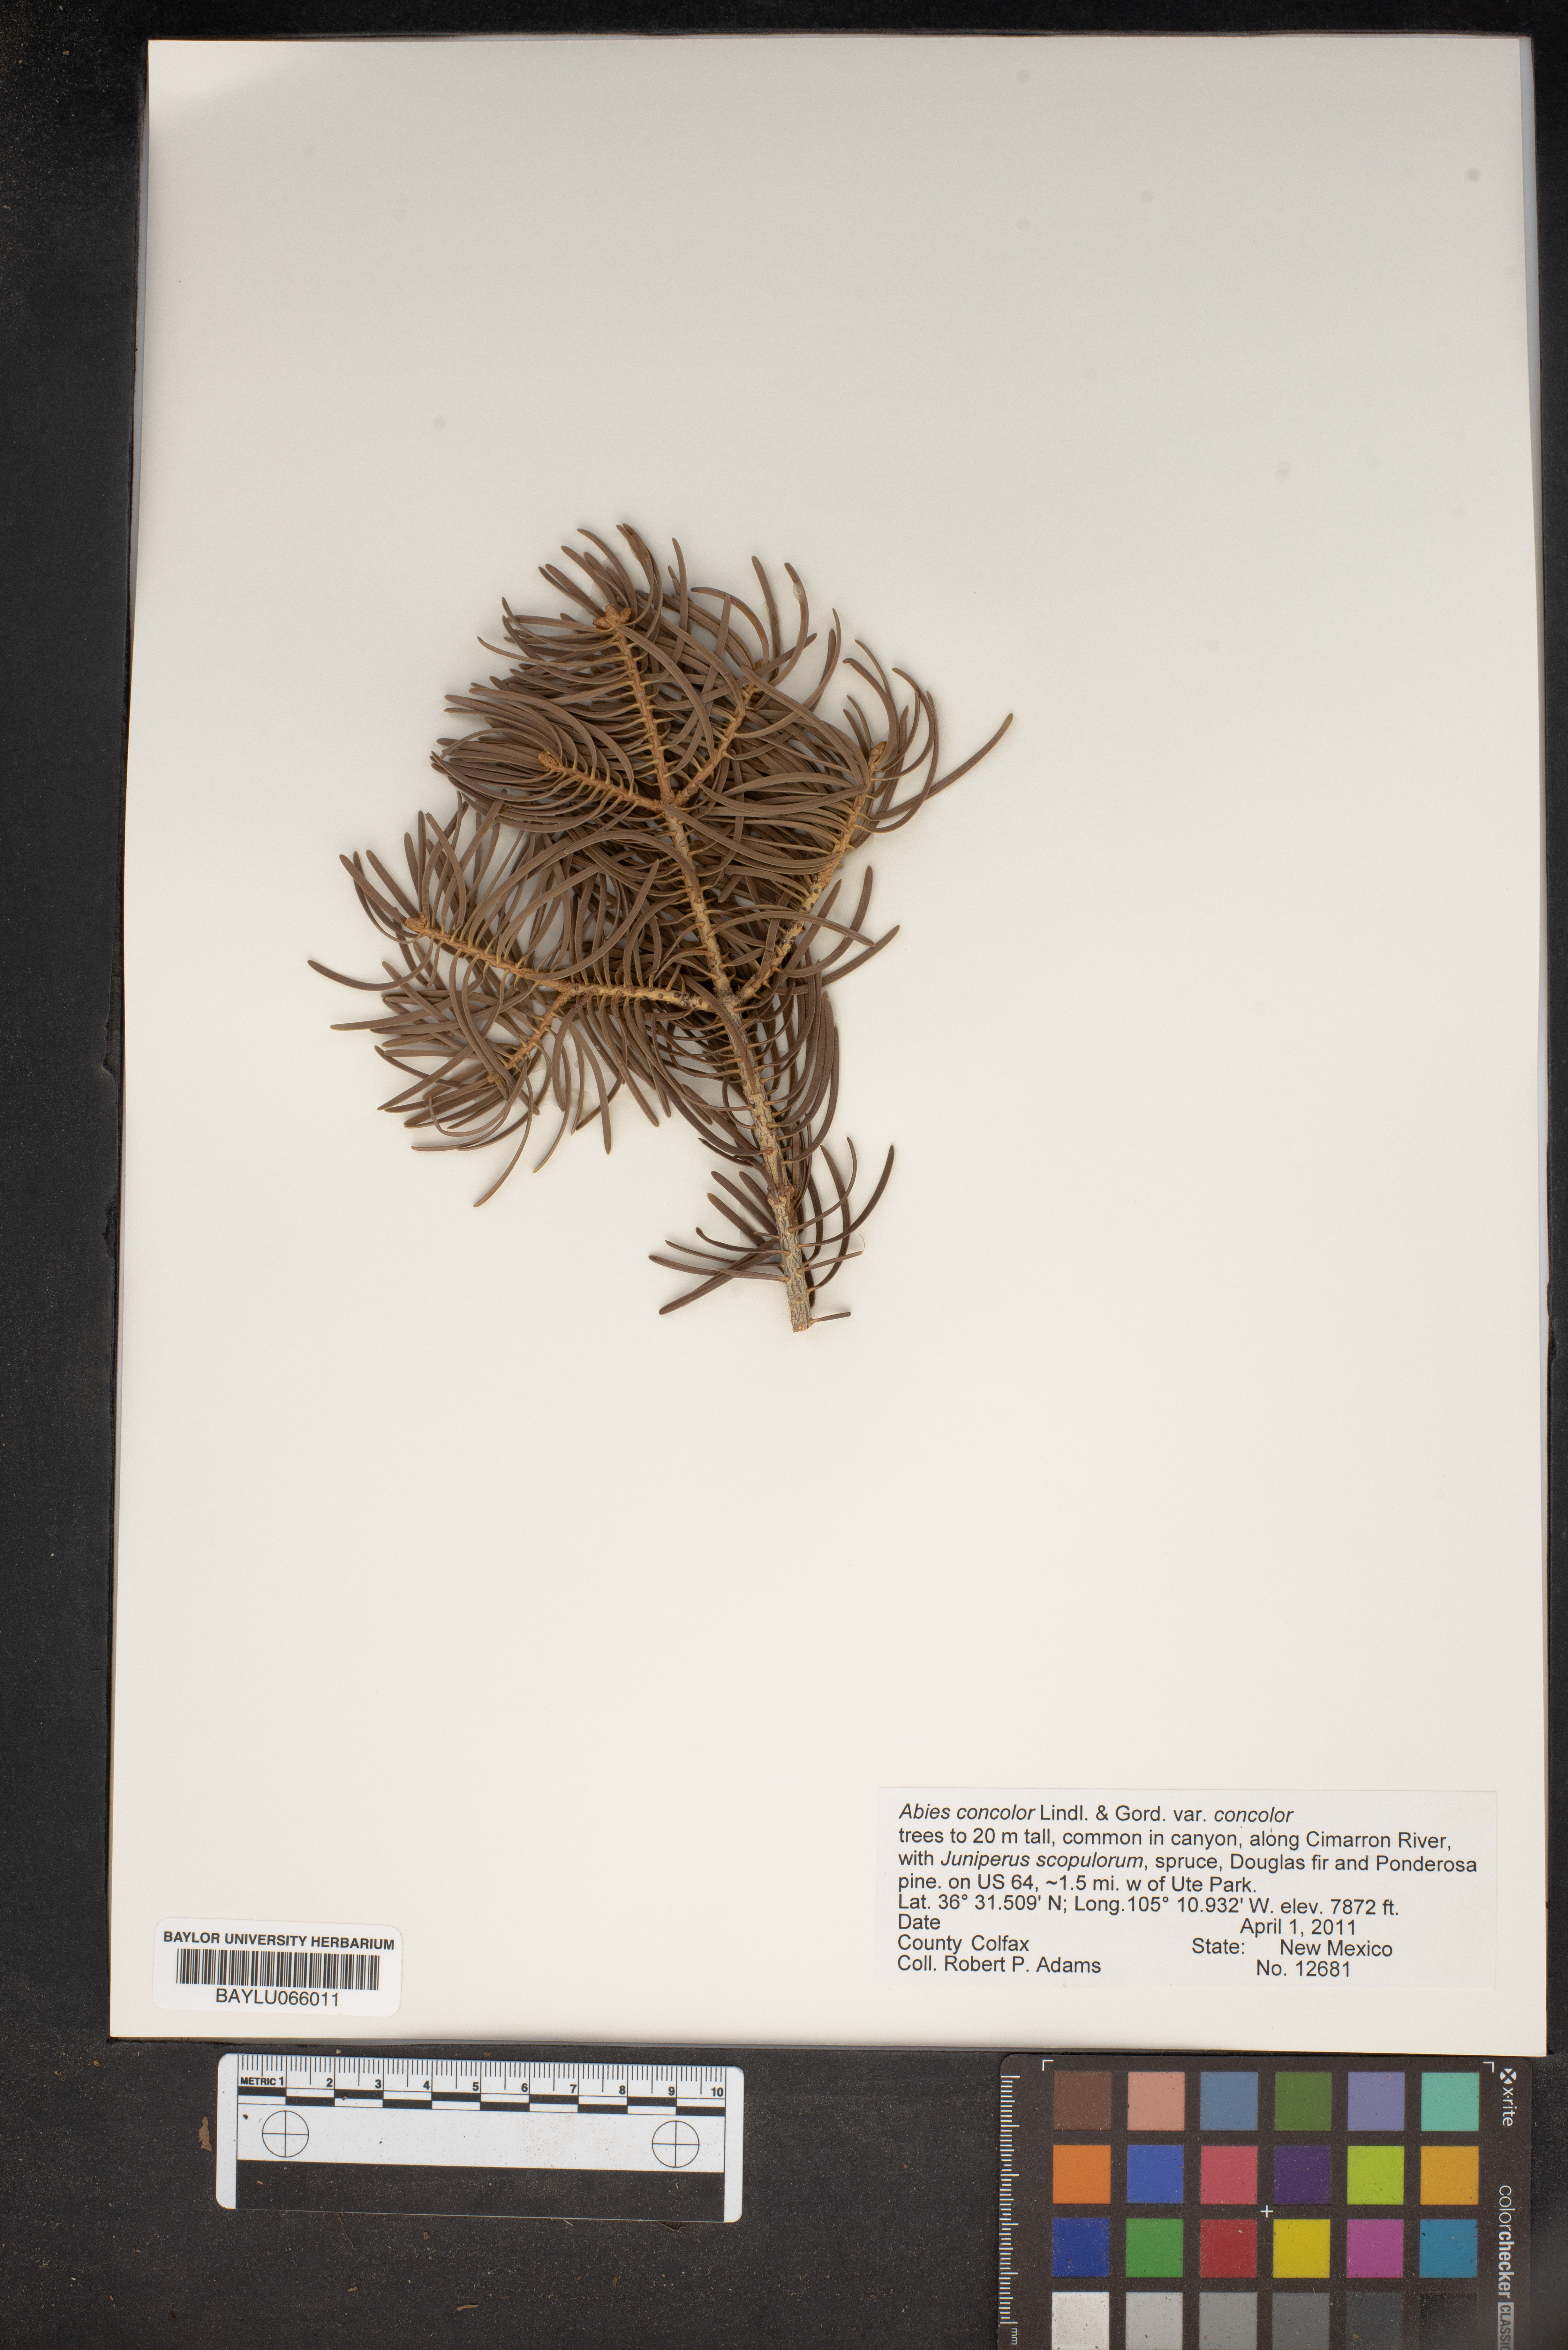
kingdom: Plantae
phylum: Tracheophyta
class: Pinopsida
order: Pinales
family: Pinaceae
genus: Abies
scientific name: Abies concolor
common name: Colorado fir
